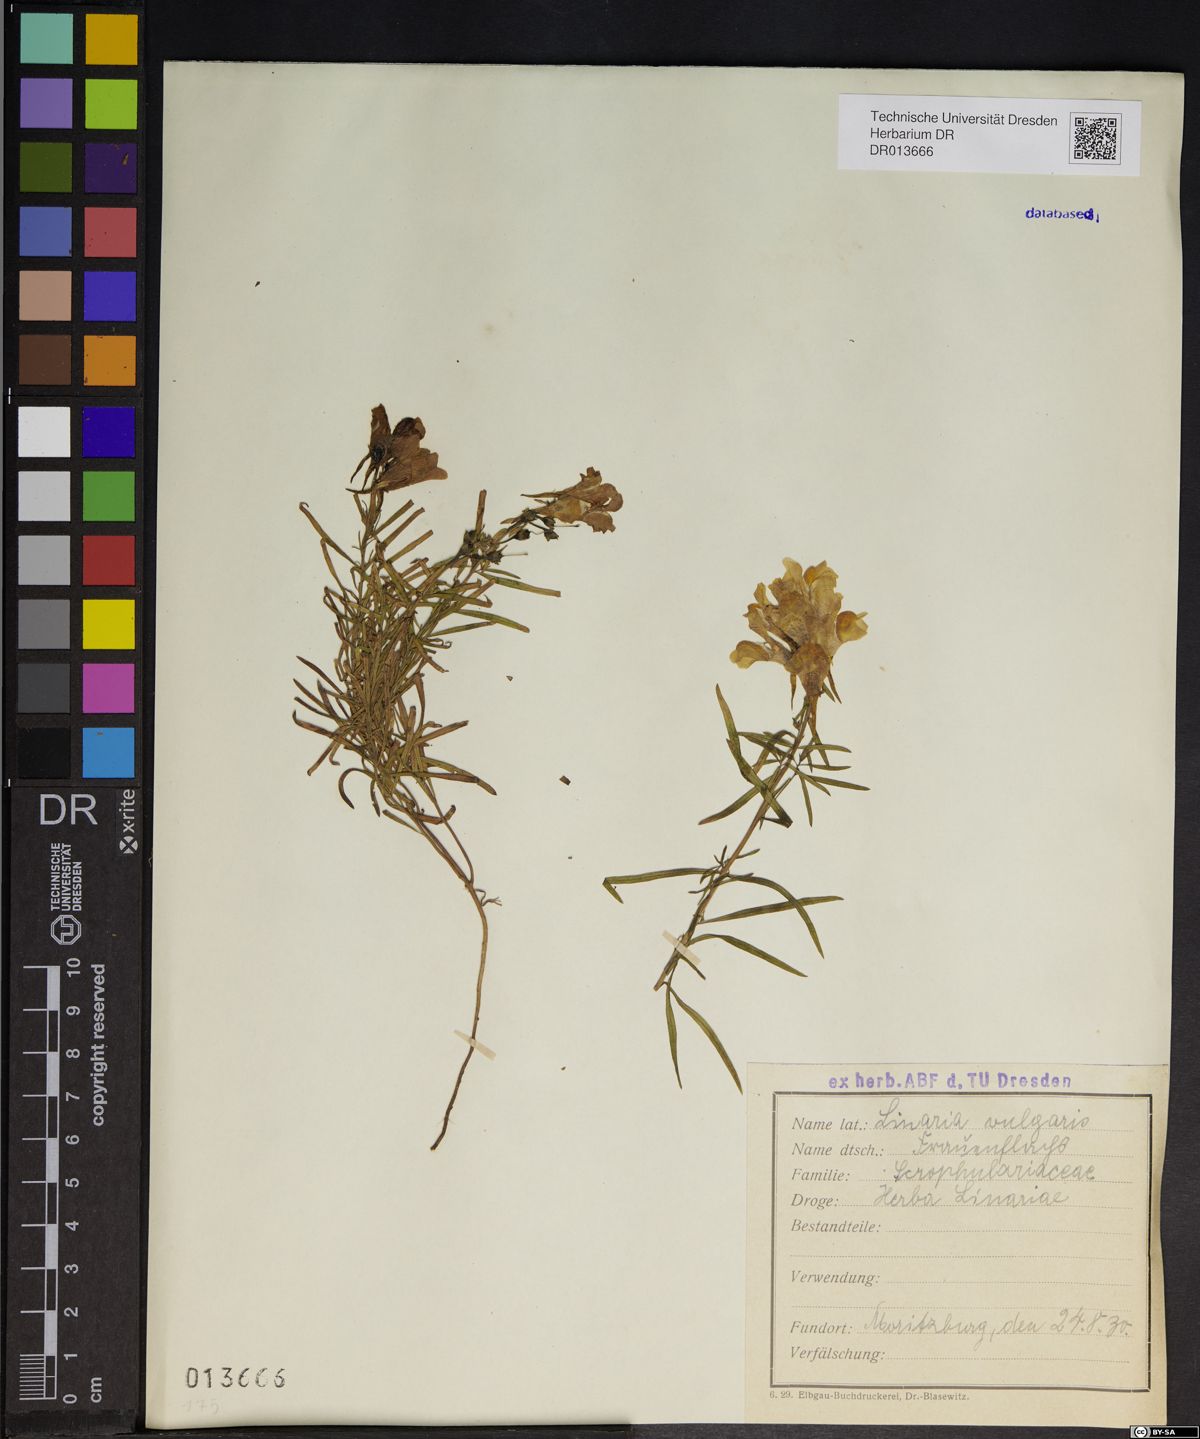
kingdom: Plantae
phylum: Tracheophyta
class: Magnoliopsida
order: Lamiales
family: Plantaginaceae
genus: Linaria
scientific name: Linaria vulgaris
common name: Butter and eggs
